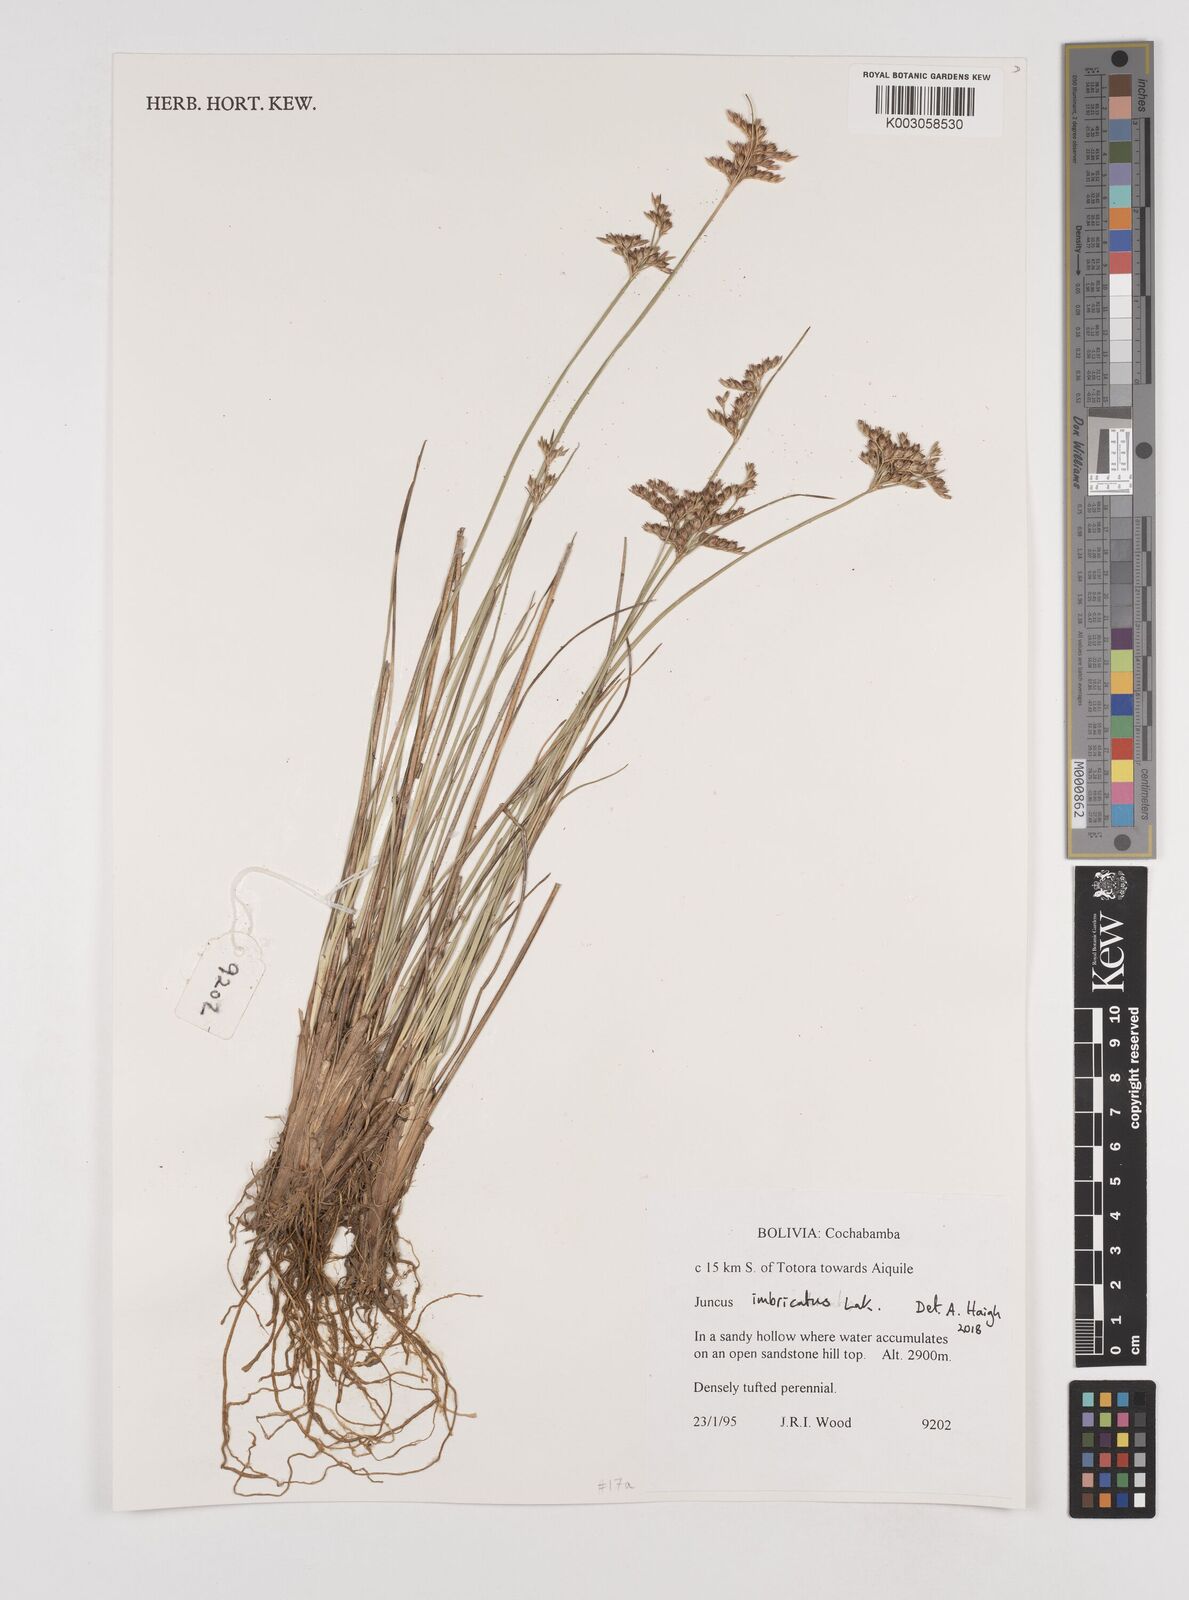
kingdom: Plantae
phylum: Tracheophyta
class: Liliopsida
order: Poales
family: Juncaceae
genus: Juncus
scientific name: Juncus imbricatus
